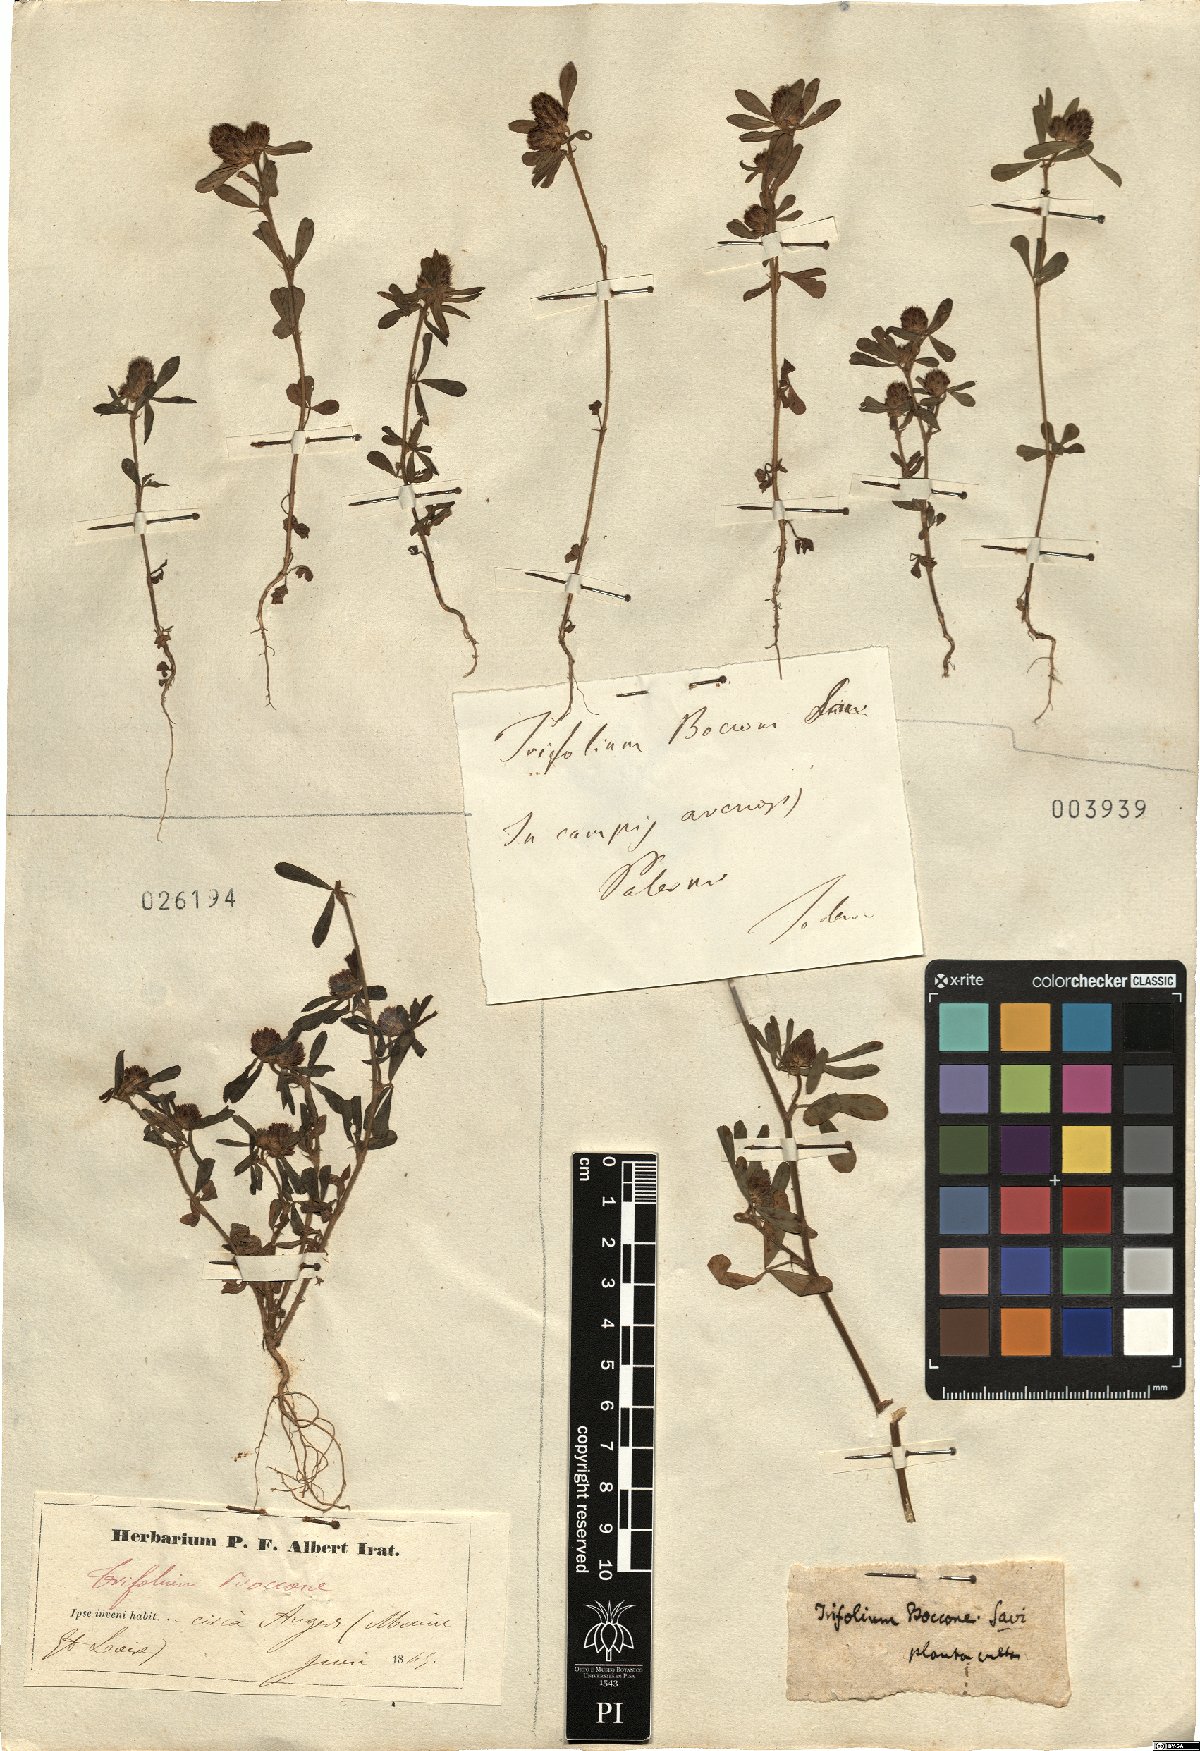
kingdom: Plantae
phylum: Tracheophyta
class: Magnoliopsida
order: Fabales
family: Fabaceae
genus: Trifolium
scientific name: Trifolium bocconei
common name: Twin-headed clover
